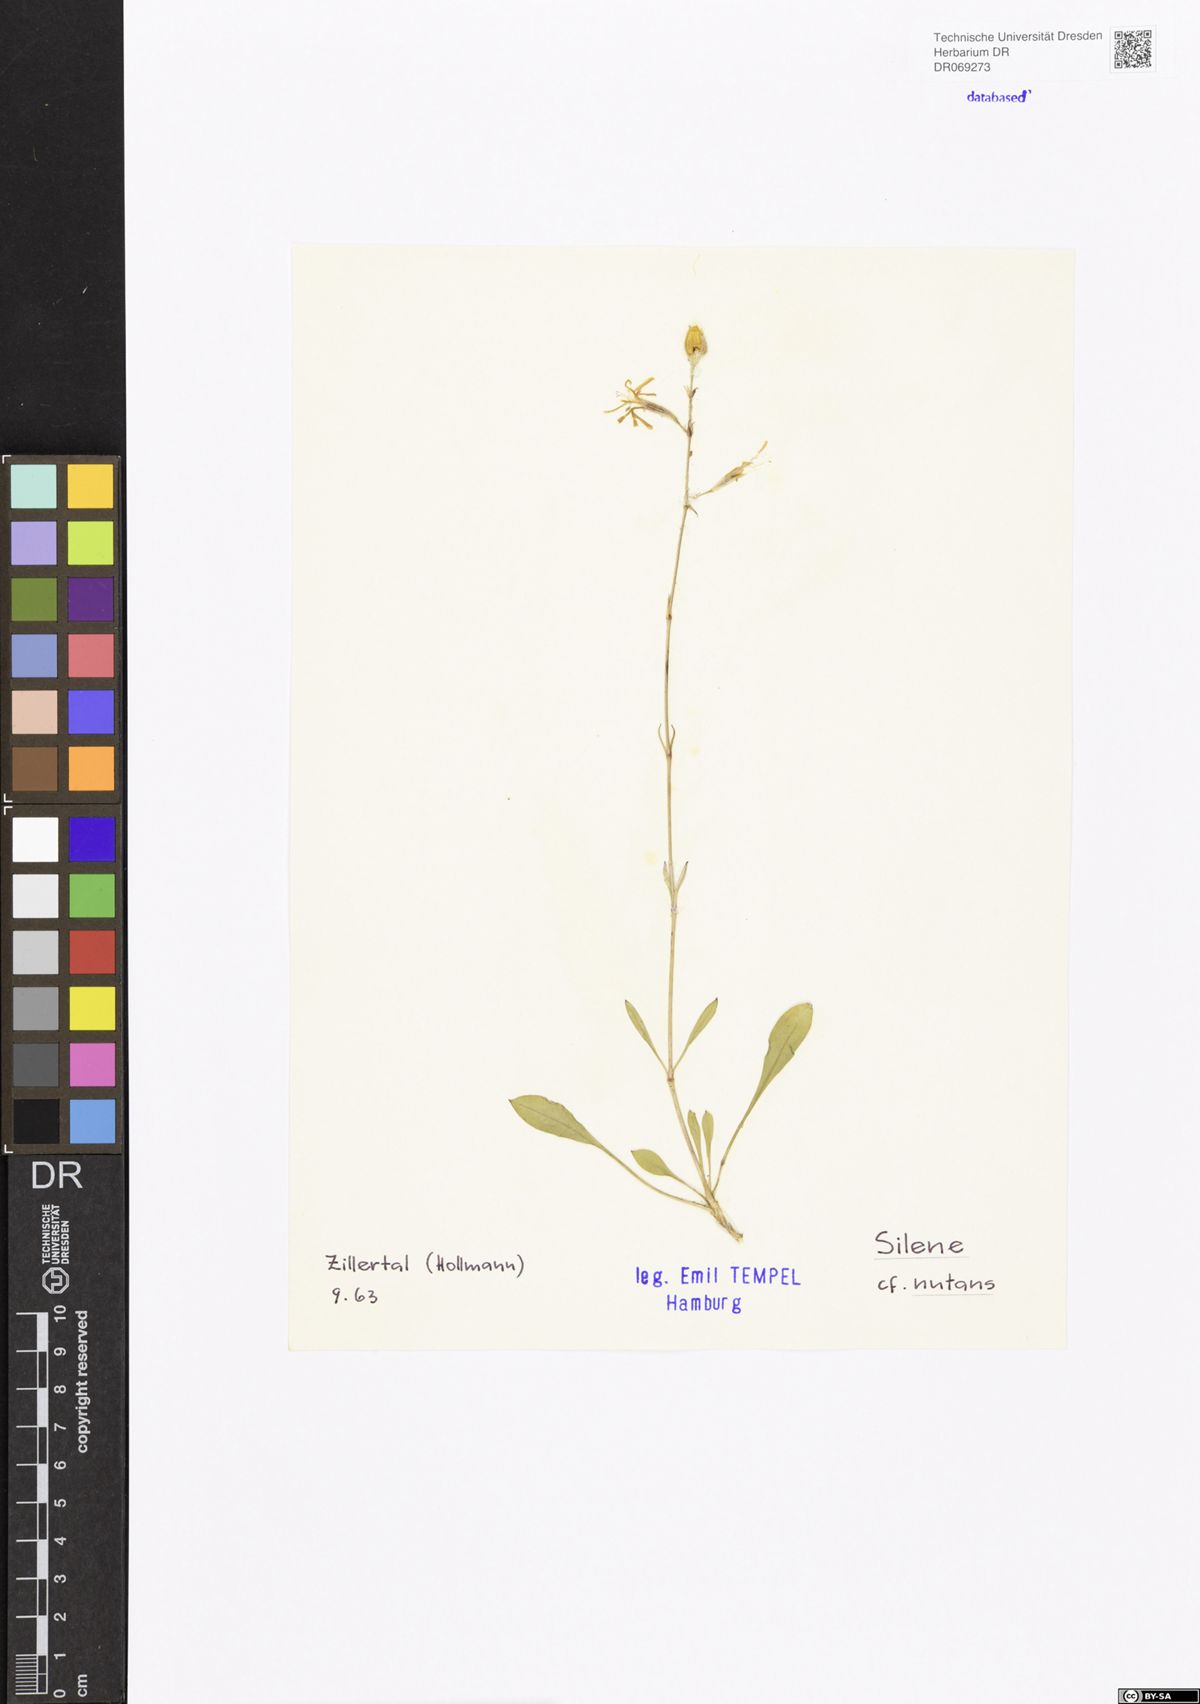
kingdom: Plantae
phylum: Tracheophyta
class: Magnoliopsida
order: Caryophyllales
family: Caryophyllaceae
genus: Silene
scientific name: Silene nutans
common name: Nottingham catchfly
